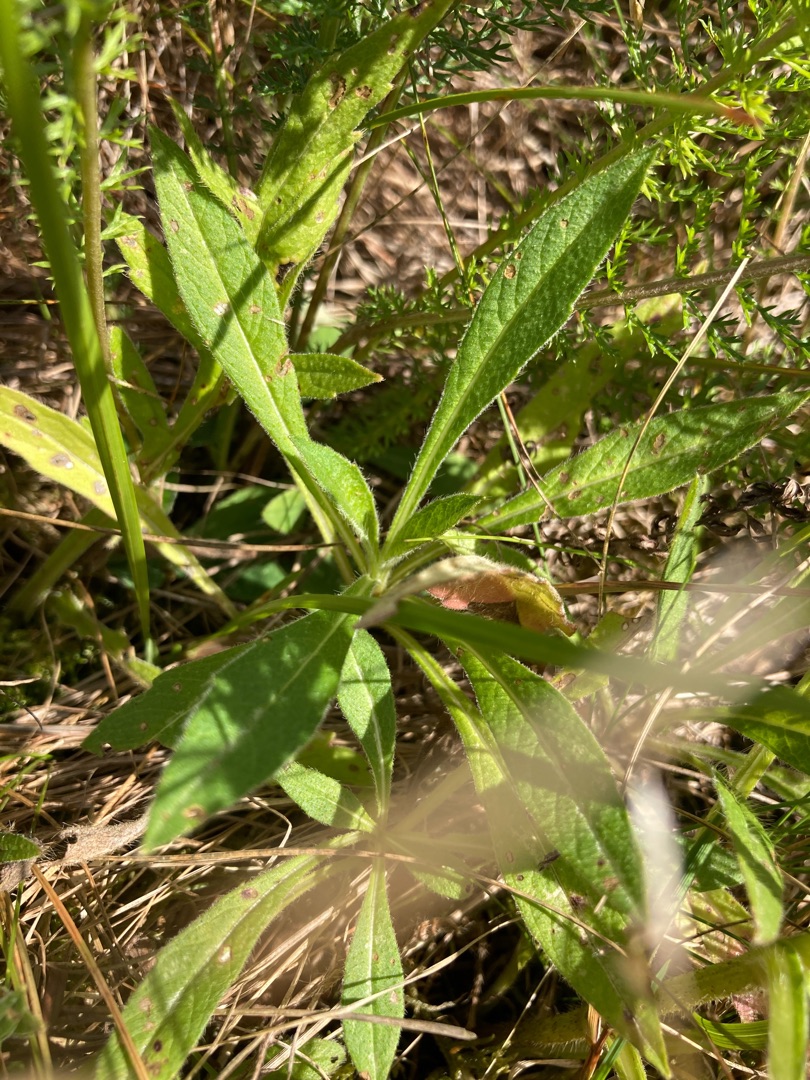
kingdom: Plantae
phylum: Tracheophyta
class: Magnoliopsida
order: Dipsacales
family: Caprifoliaceae
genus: Knautia
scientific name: Knautia arvensis
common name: Blåhat
